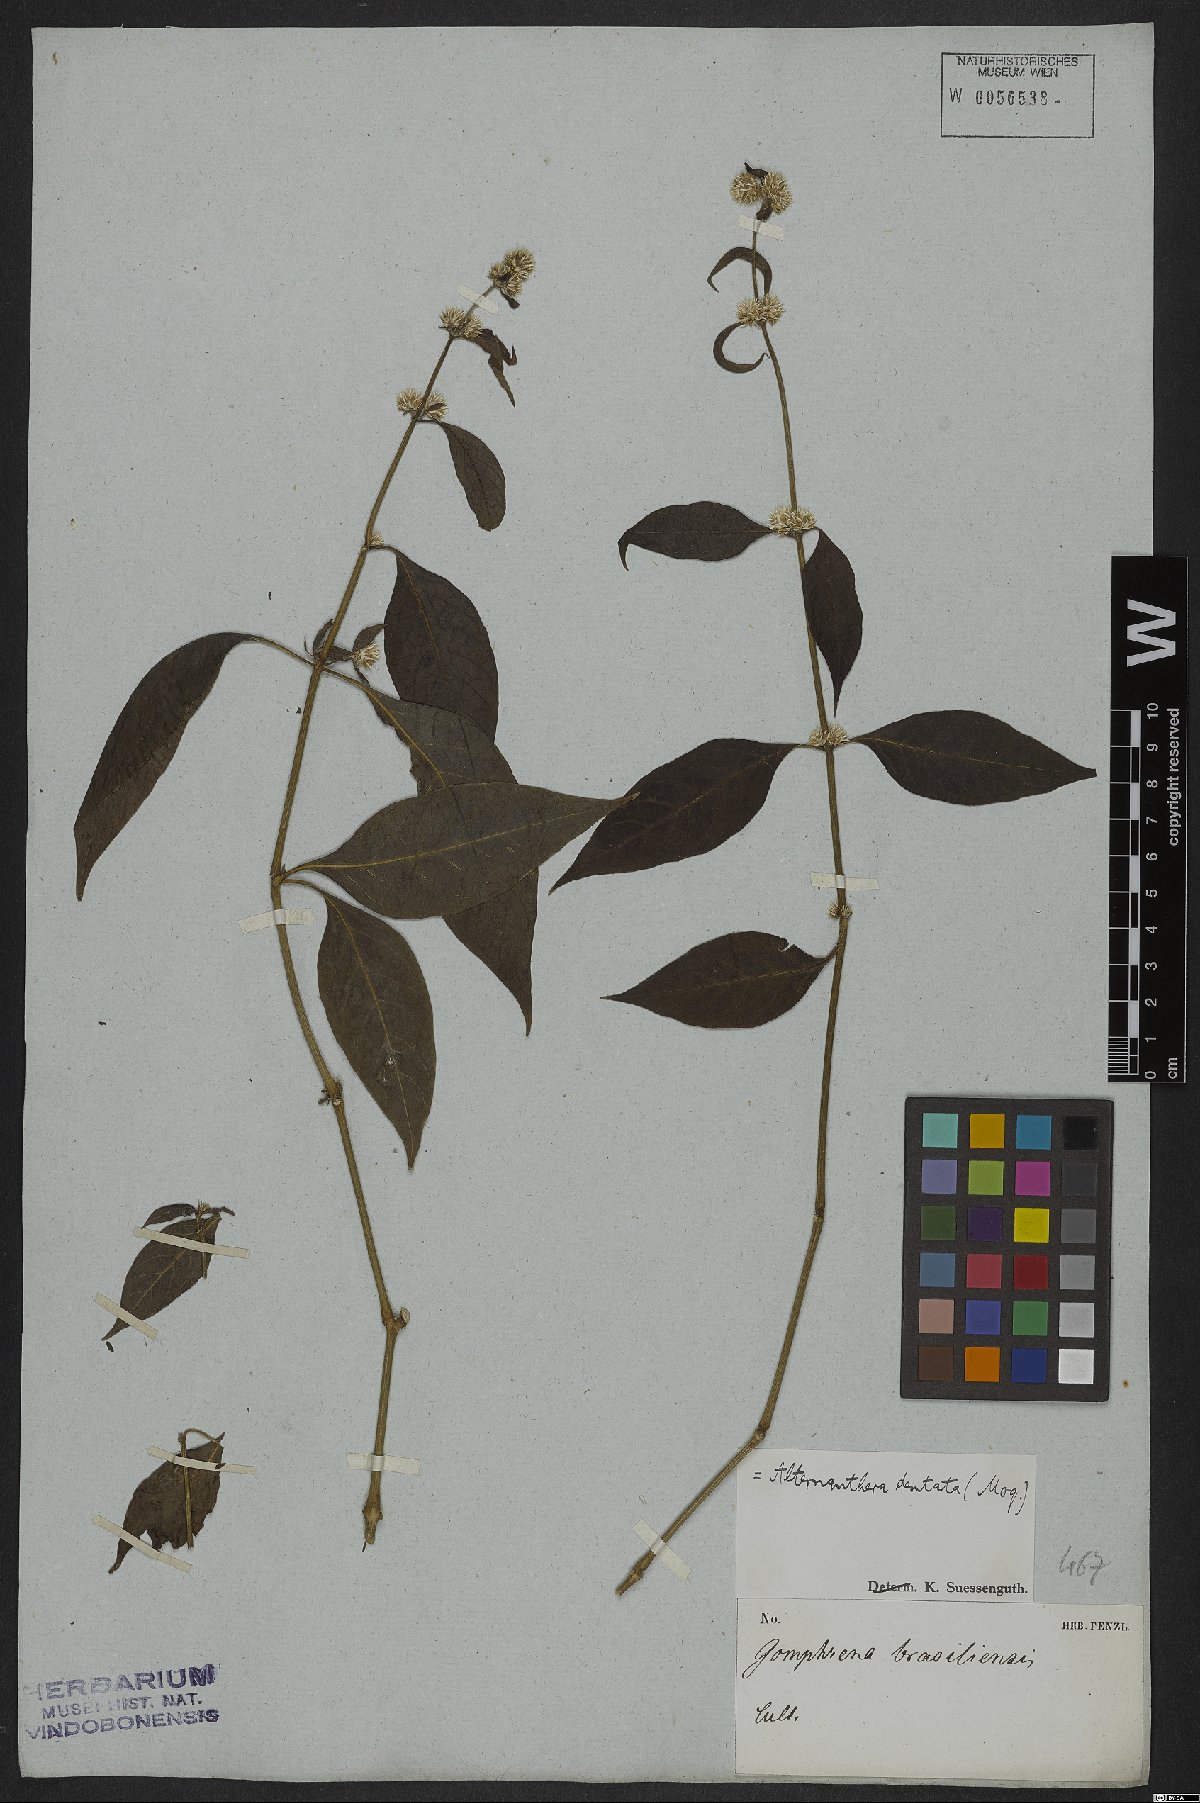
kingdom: Plantae
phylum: Tracheophyta
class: Magnoliopsida
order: Caryophyllales
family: Amaranthaceae
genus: Alternanthera
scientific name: Alternanthera ramosissima
